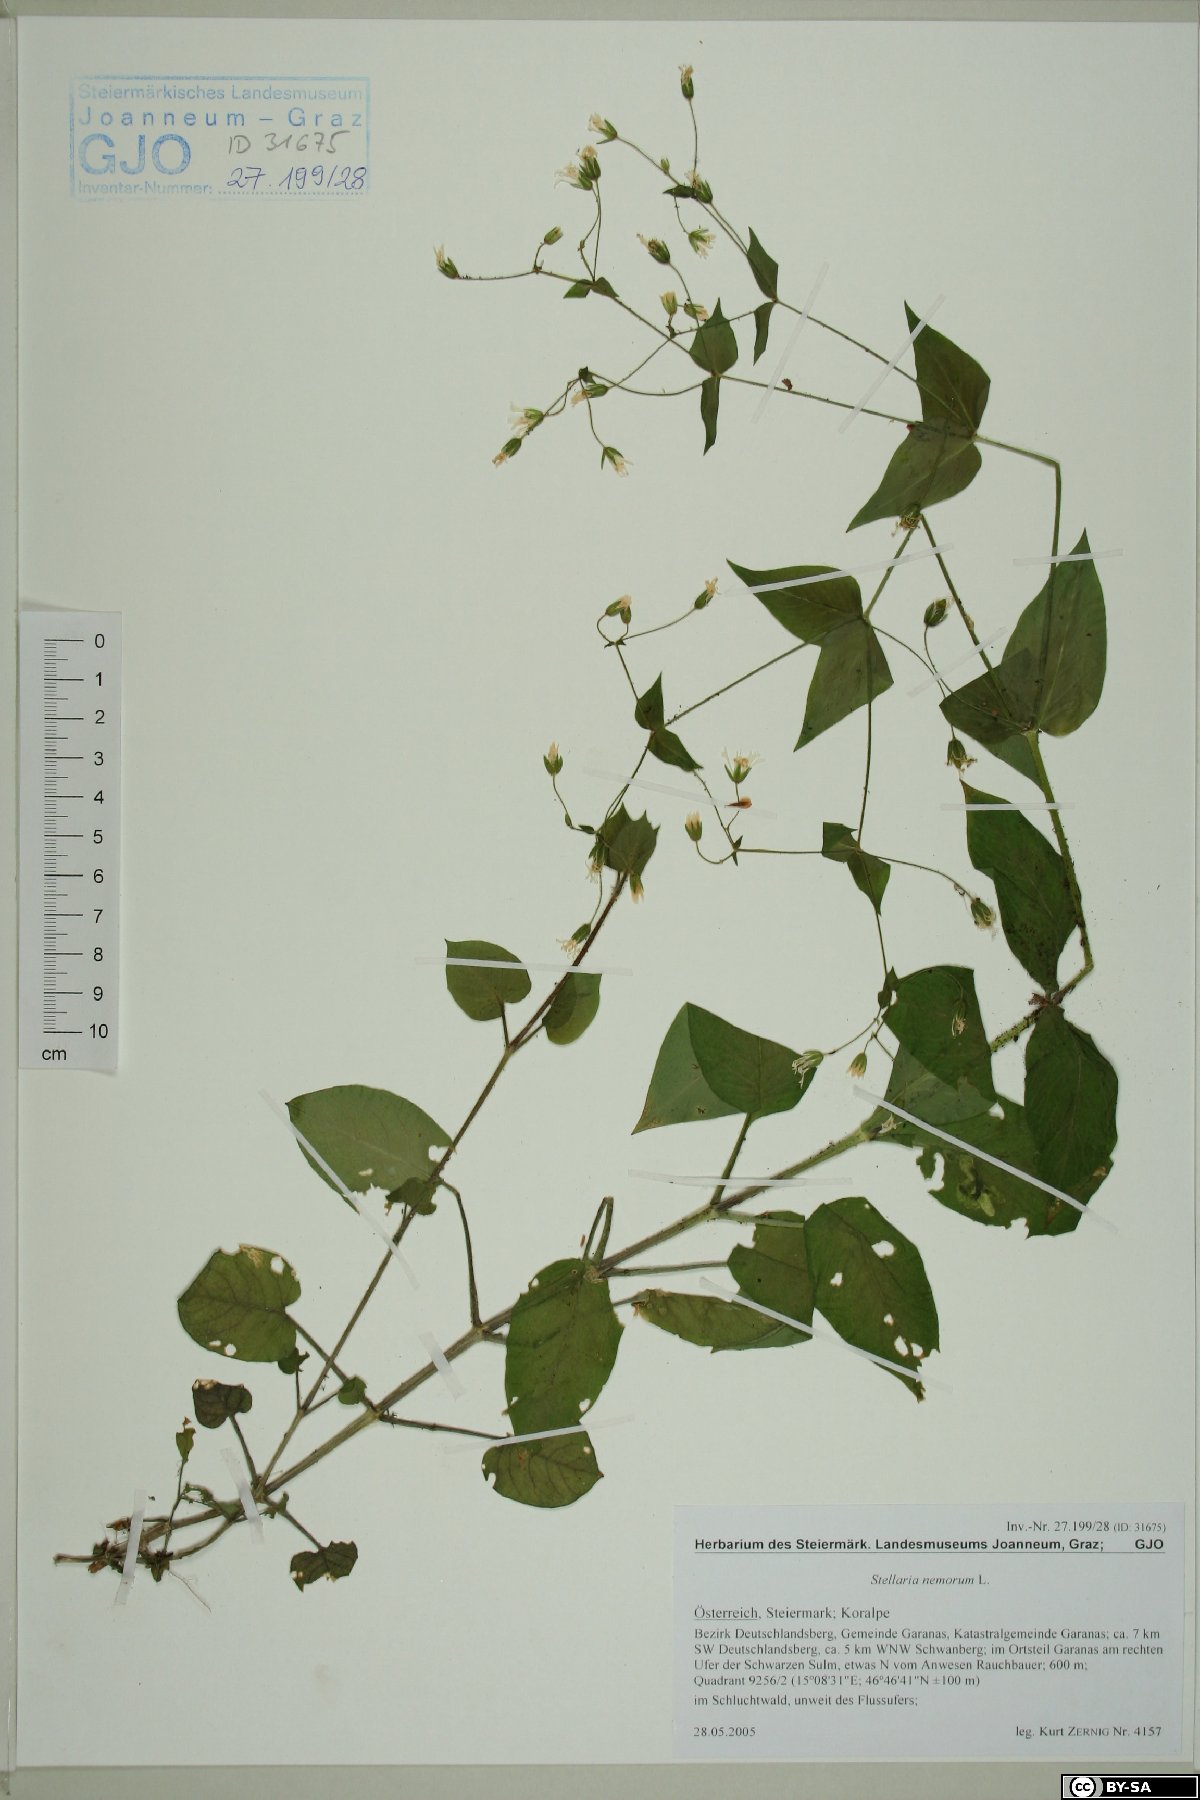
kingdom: Plantae
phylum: Tracheophyta
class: Magnoliopsida
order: Caryophyllales
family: Caryophyllaceae
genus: Stellaria
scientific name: Stellaria nemorum
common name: Wood stitchwort
